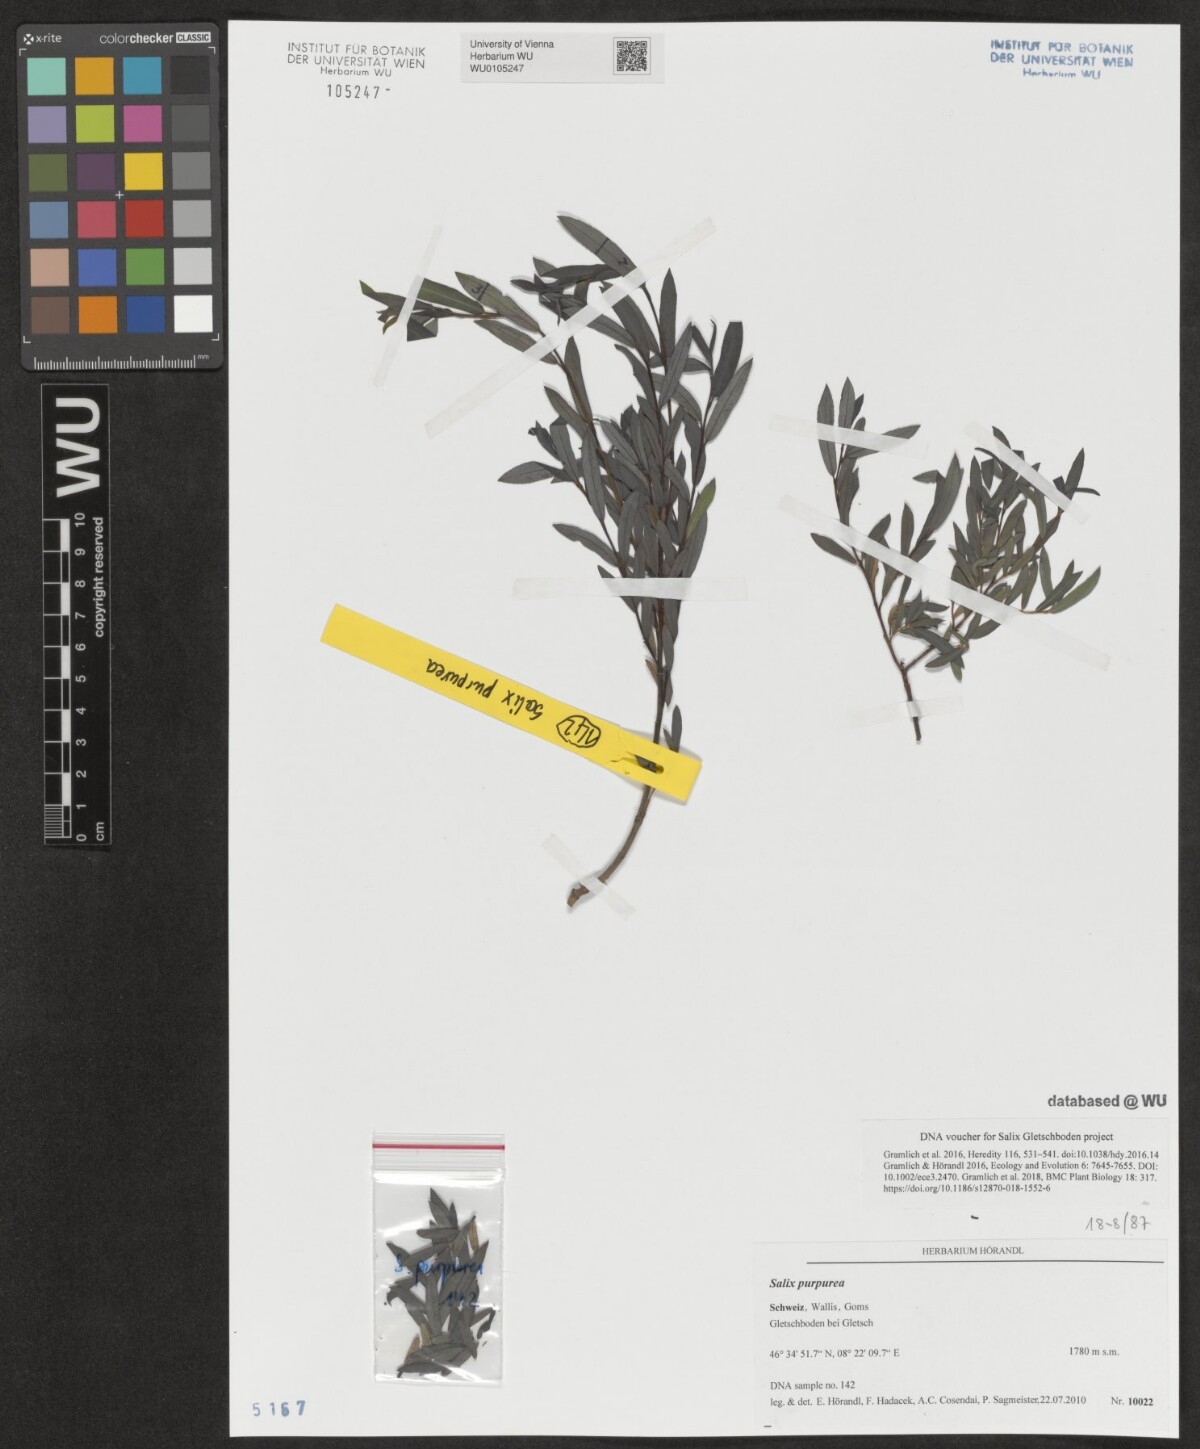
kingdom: Plantae
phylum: Tracheophyta
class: Magnoliopsida
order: Malpighiales
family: Salicaceae
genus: Salix
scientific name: Salix purpurea
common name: Purple willow
